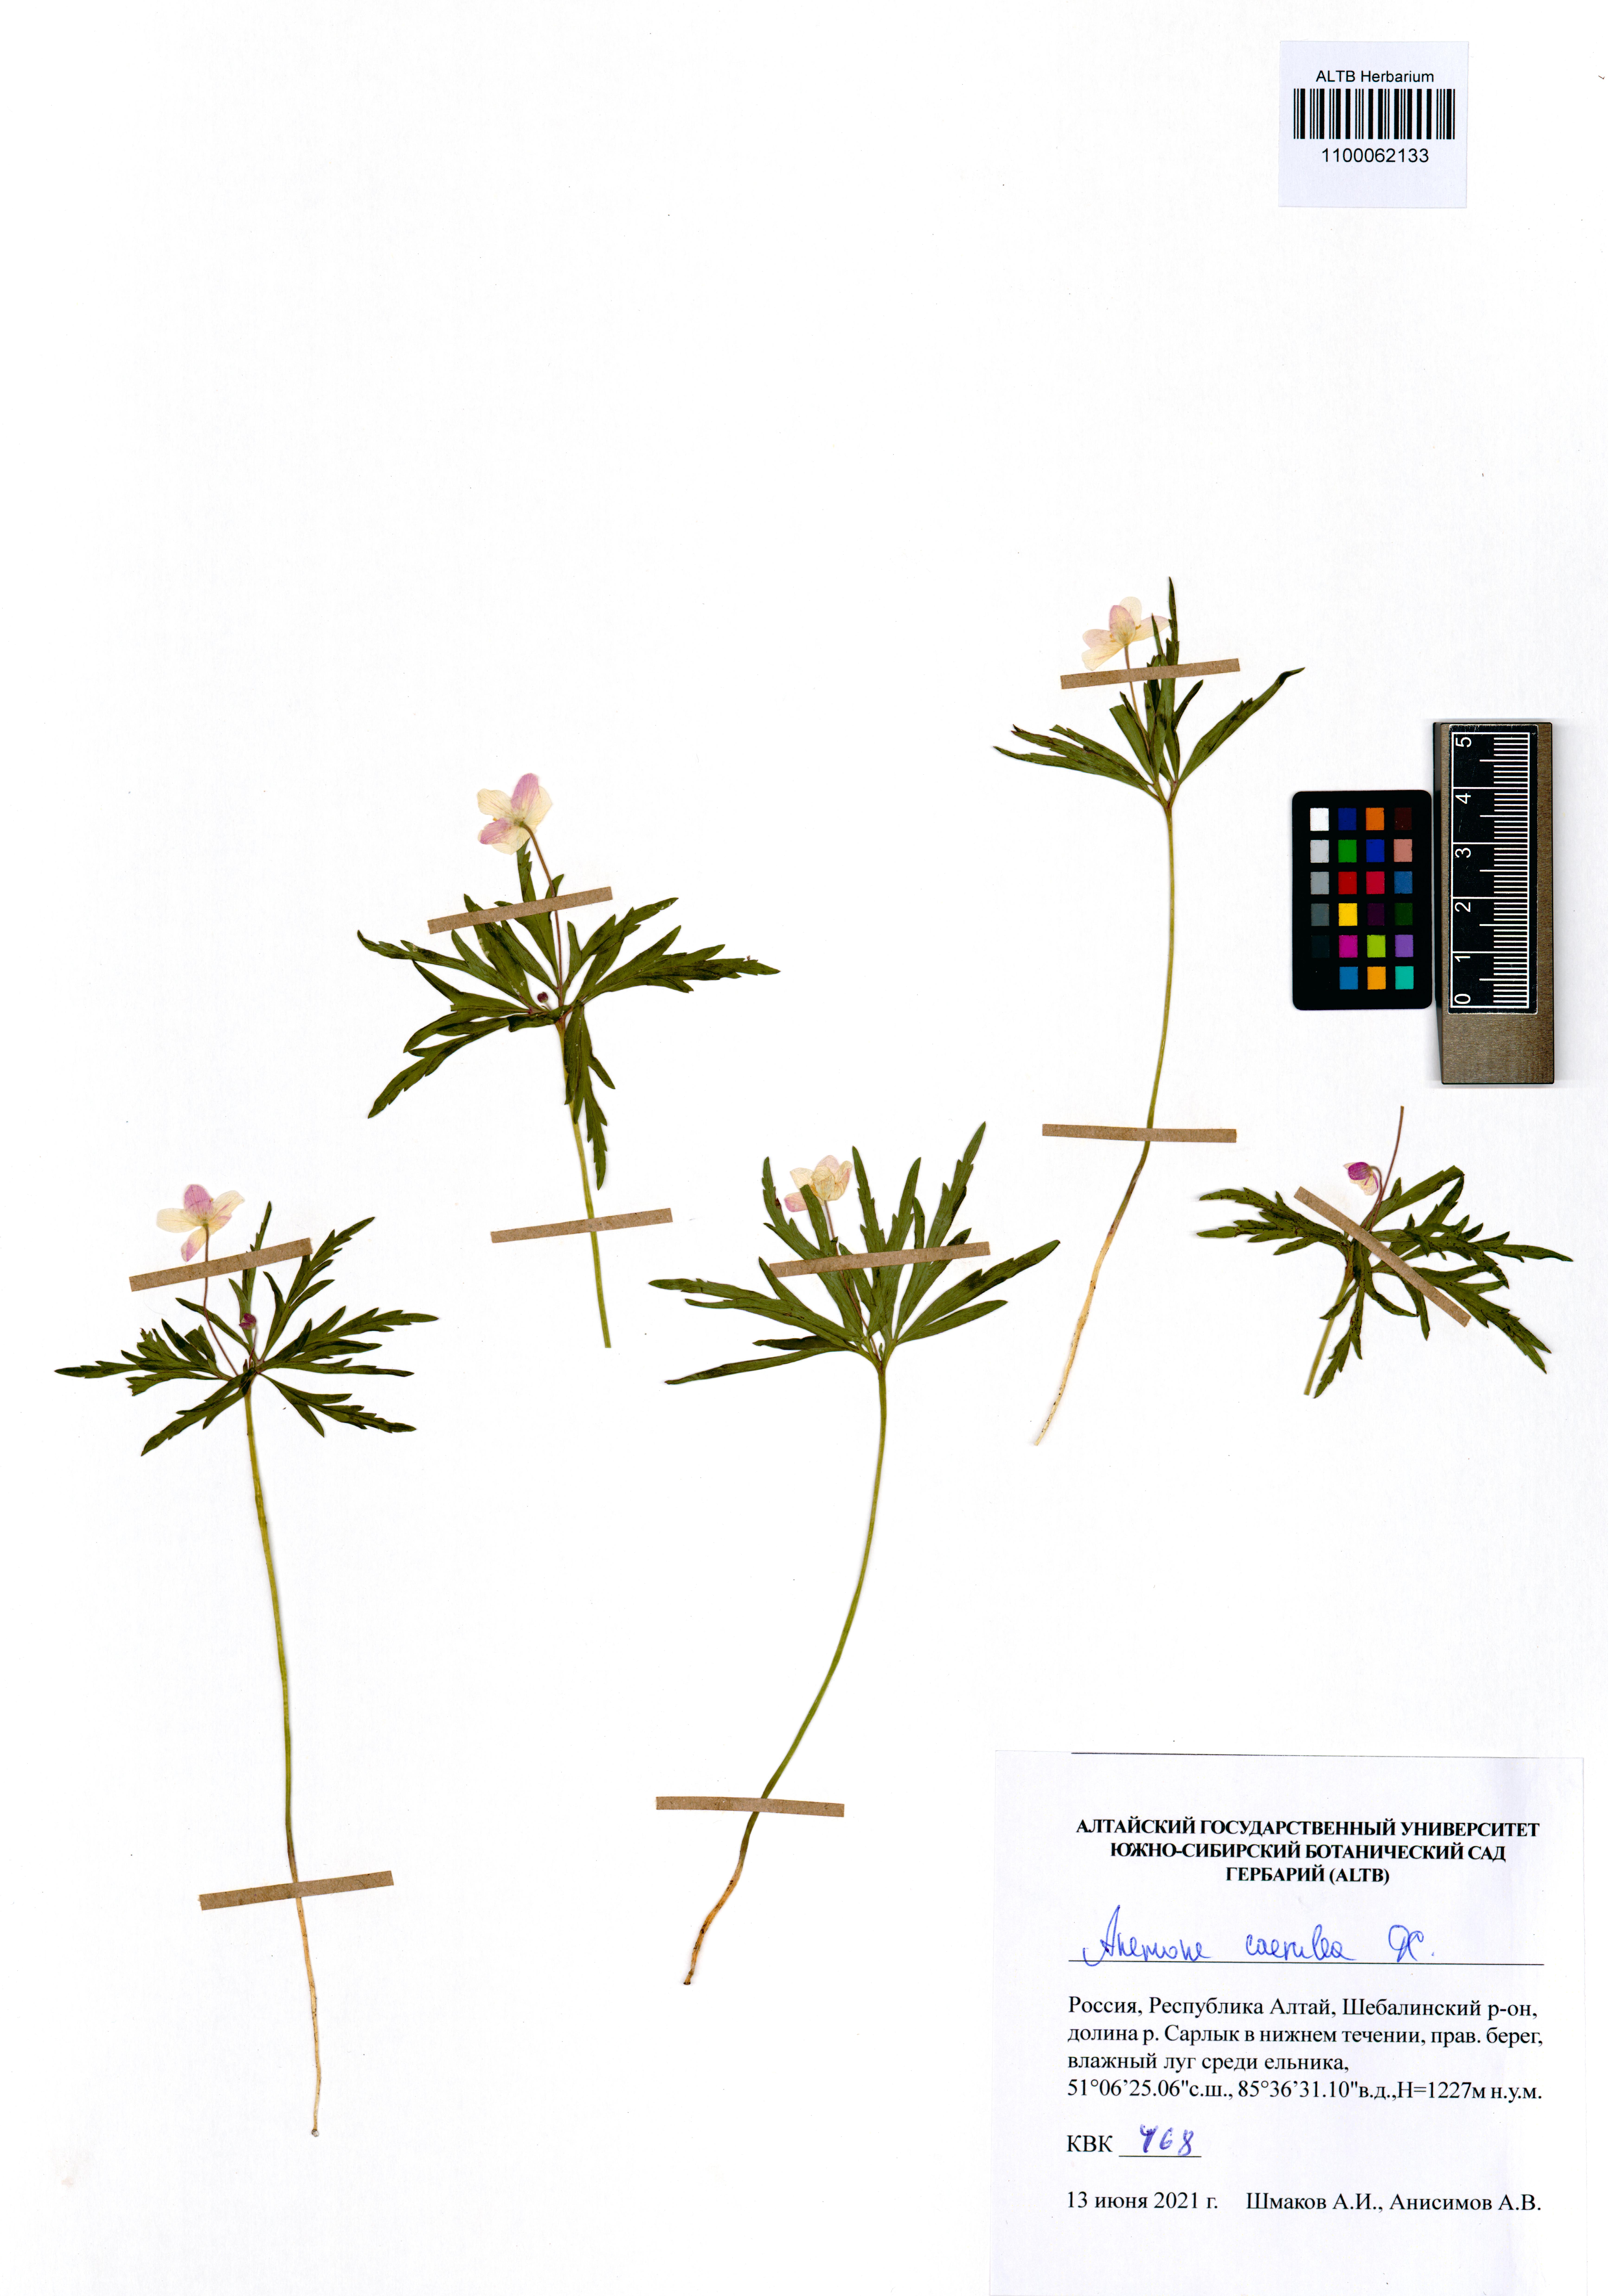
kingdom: Plantae
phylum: Tracheophyta
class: Magnoliopsida
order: Ranunculales
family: Ranunculaceae
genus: Anemone
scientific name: Anemone caerulea
